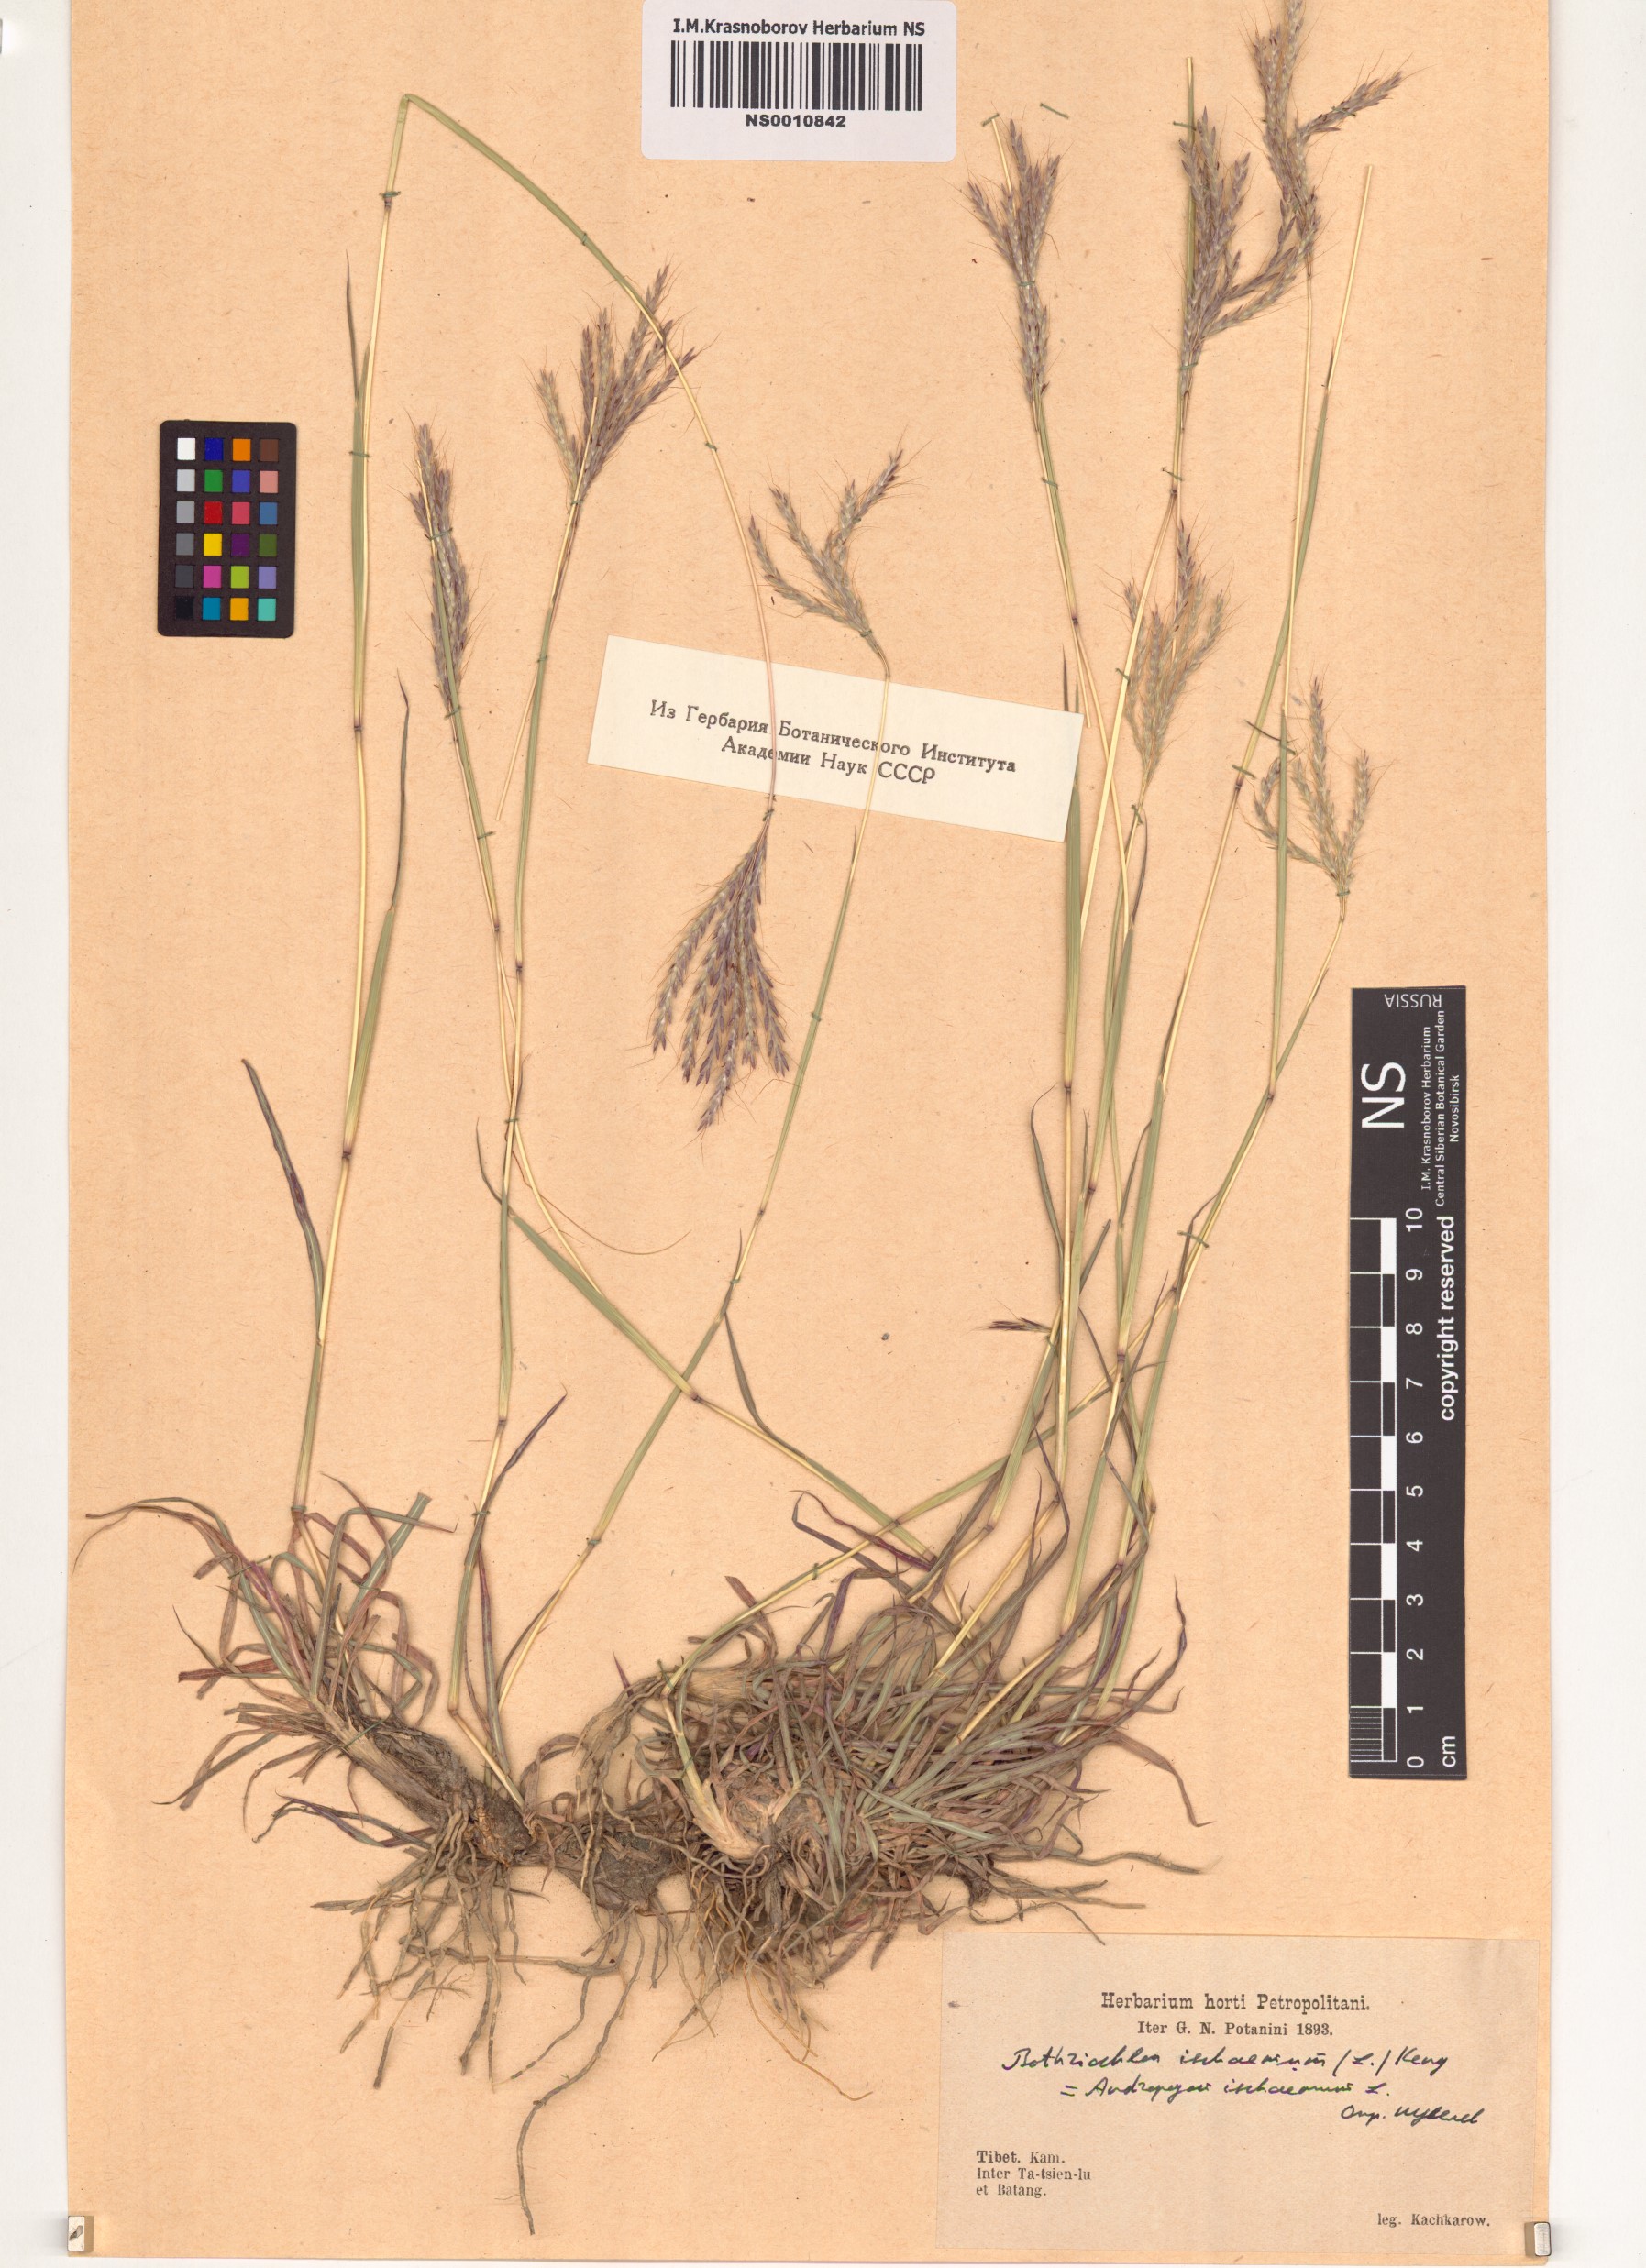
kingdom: Plantae
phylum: Tracheophyta
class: Liliopsida
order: Poales
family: Poaceae
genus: Bothriochloa
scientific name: Bothriochloa ischaemum
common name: Yellow bluestem
